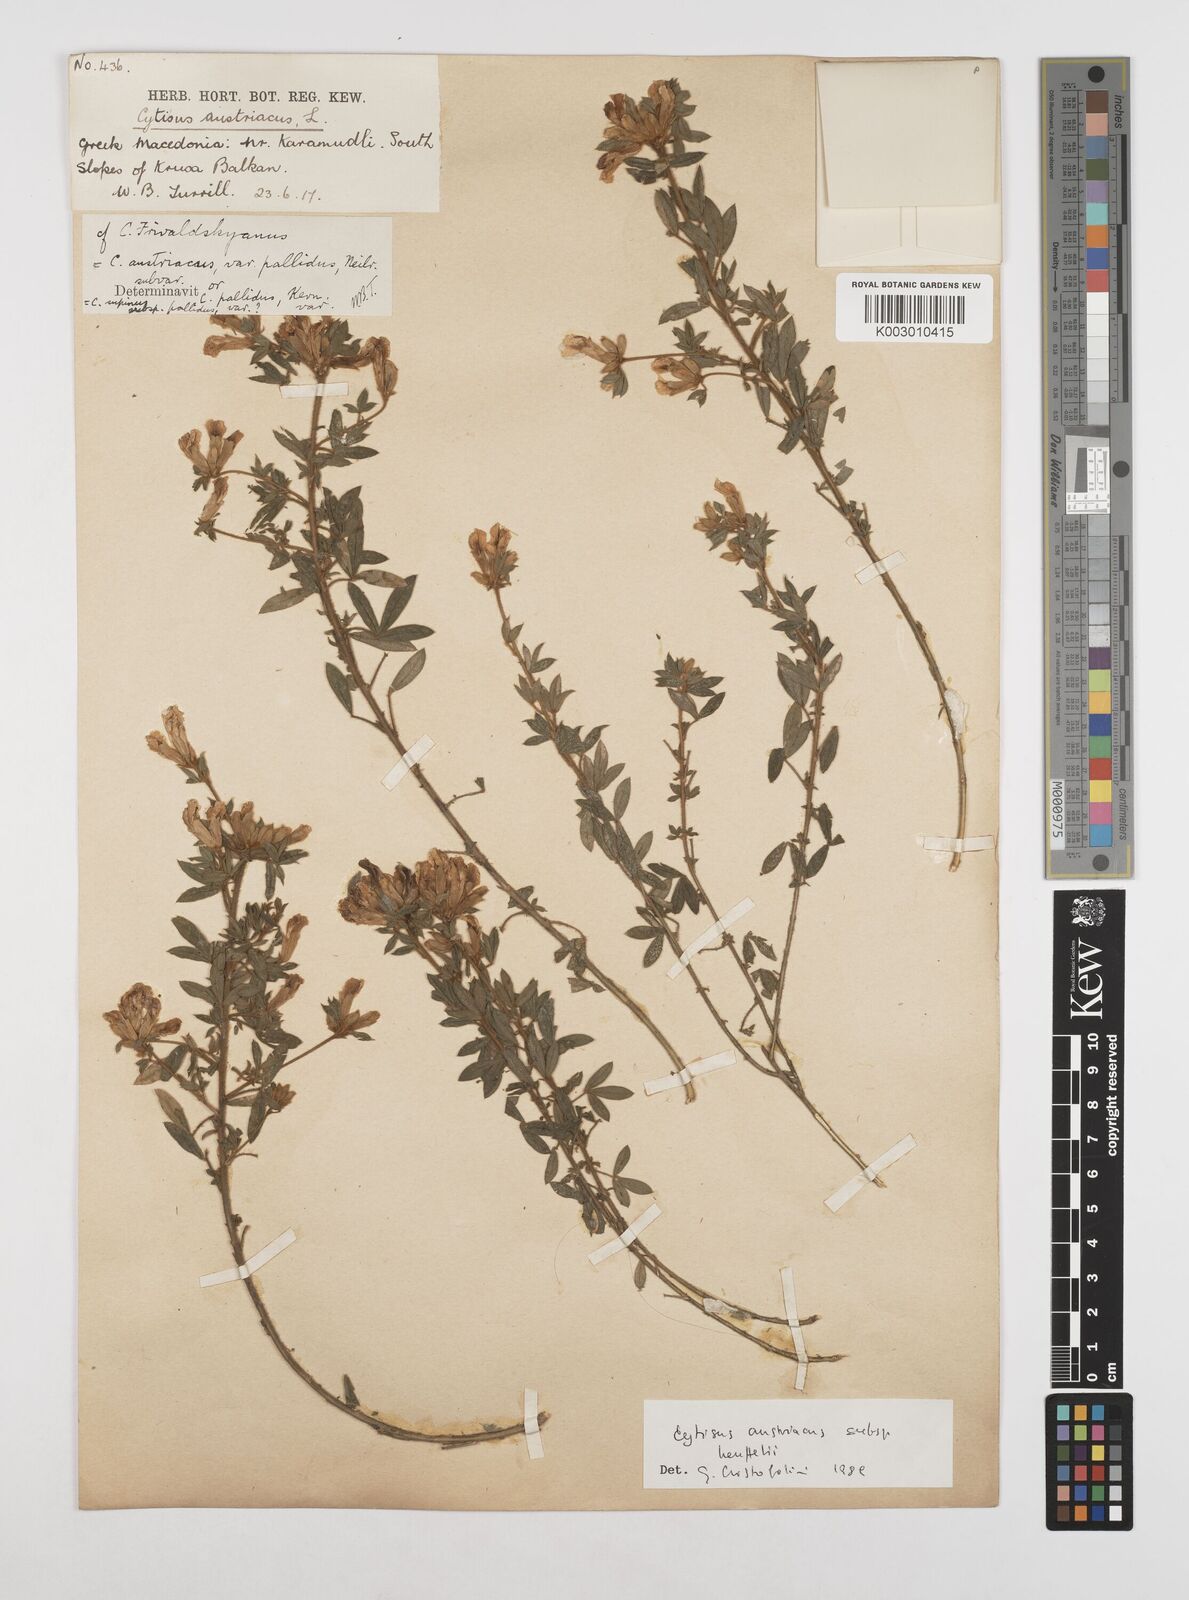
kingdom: Plantae
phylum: Tracheophyta
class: Magnoliopsida
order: Fabales
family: Fabaceae
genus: Chamaecytisus
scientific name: Chamaecytisus austriacus
